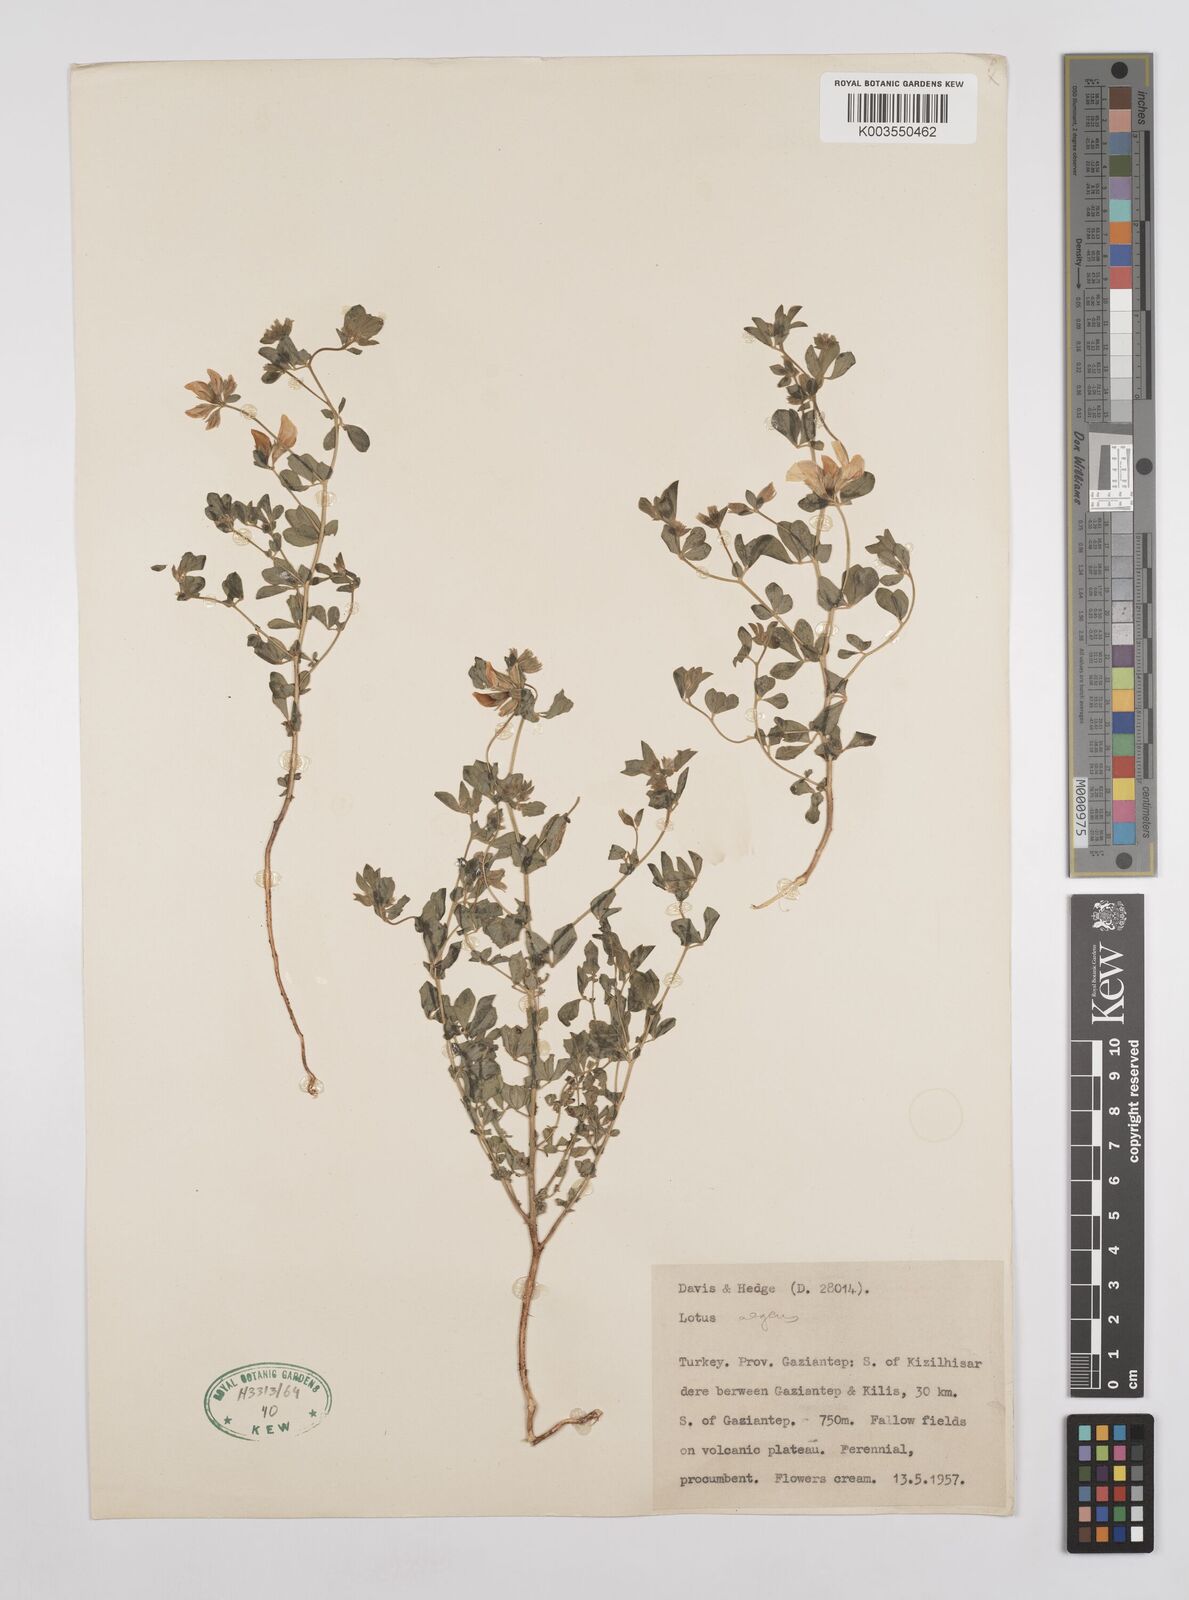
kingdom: Plantae
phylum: Tracheophyta
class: Magnoliopsida
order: Fabales
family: Fabaceae
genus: Lotus
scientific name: Lotus aegaeus
